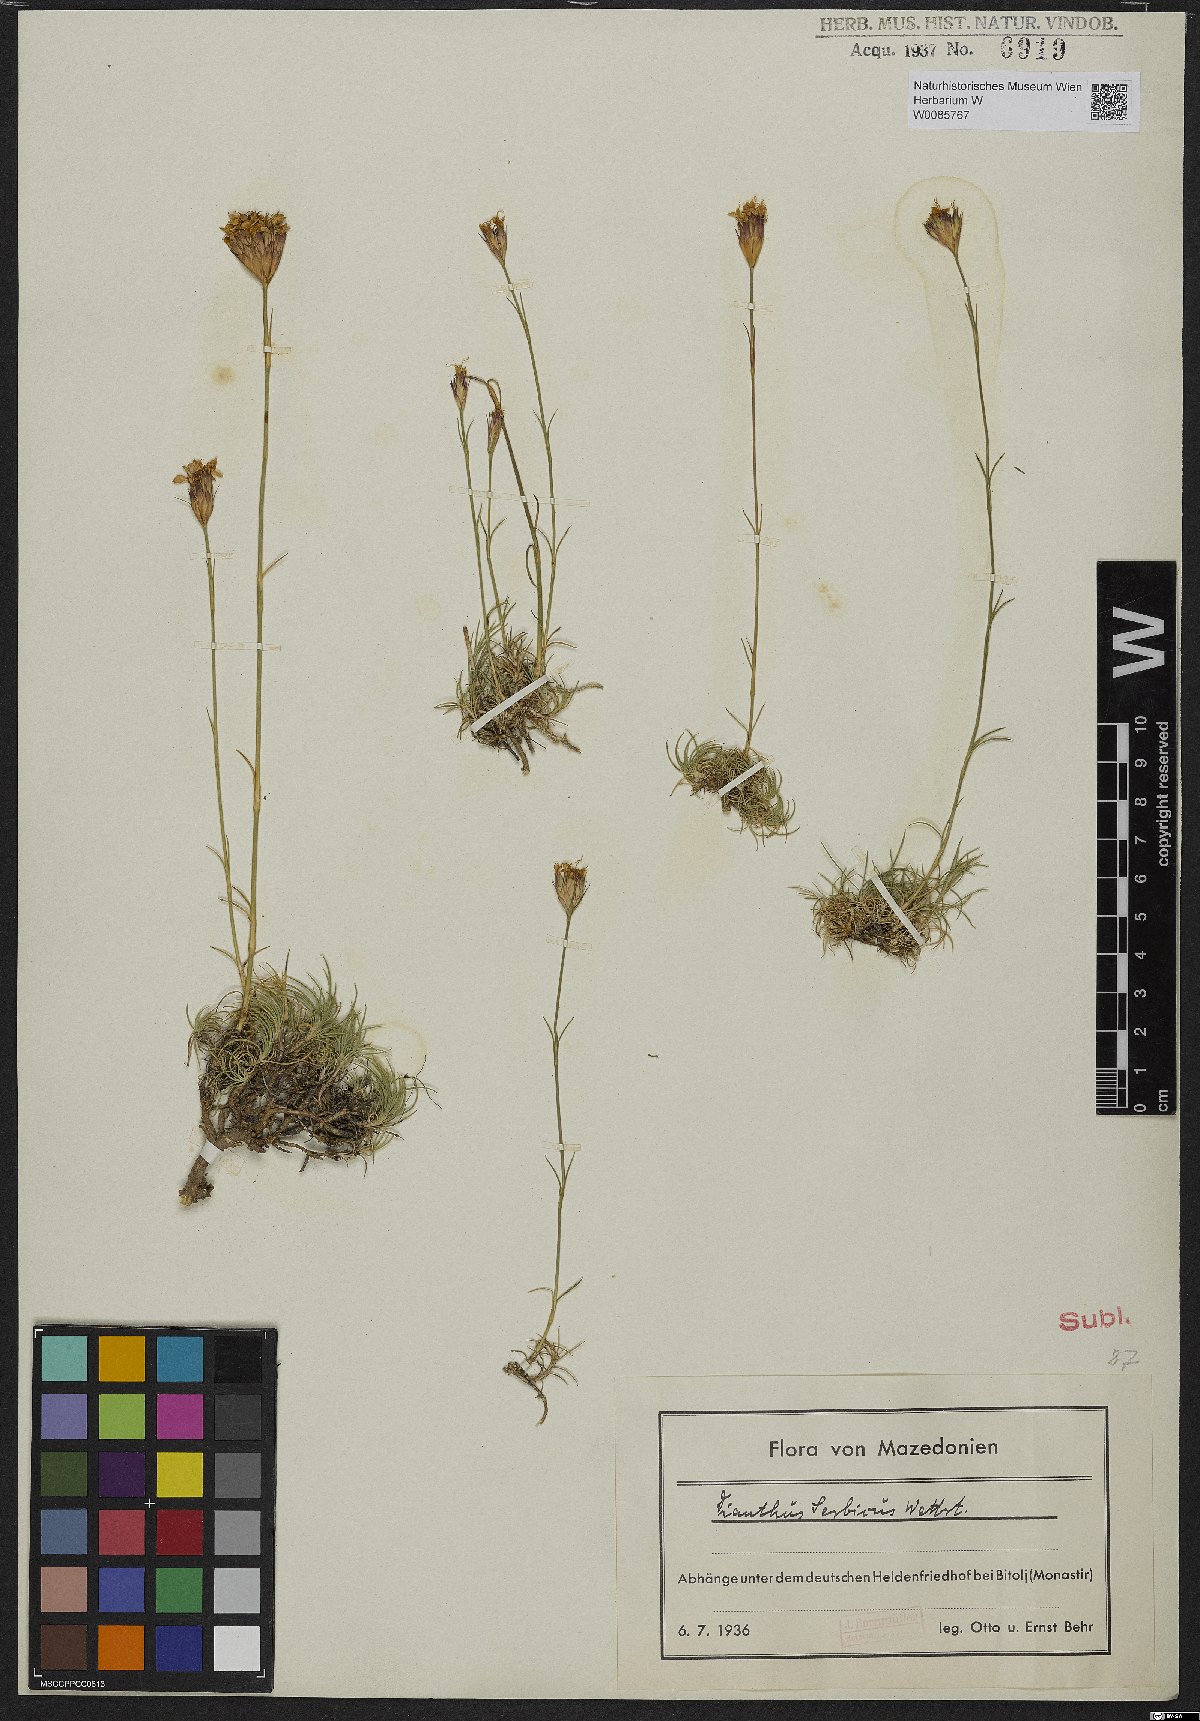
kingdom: Plantae
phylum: Tracheophyta
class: Magnoliopsida
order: Caryophyllales
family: Caryophyllaceae
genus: Dianthus
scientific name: Dianthus pinifolius
